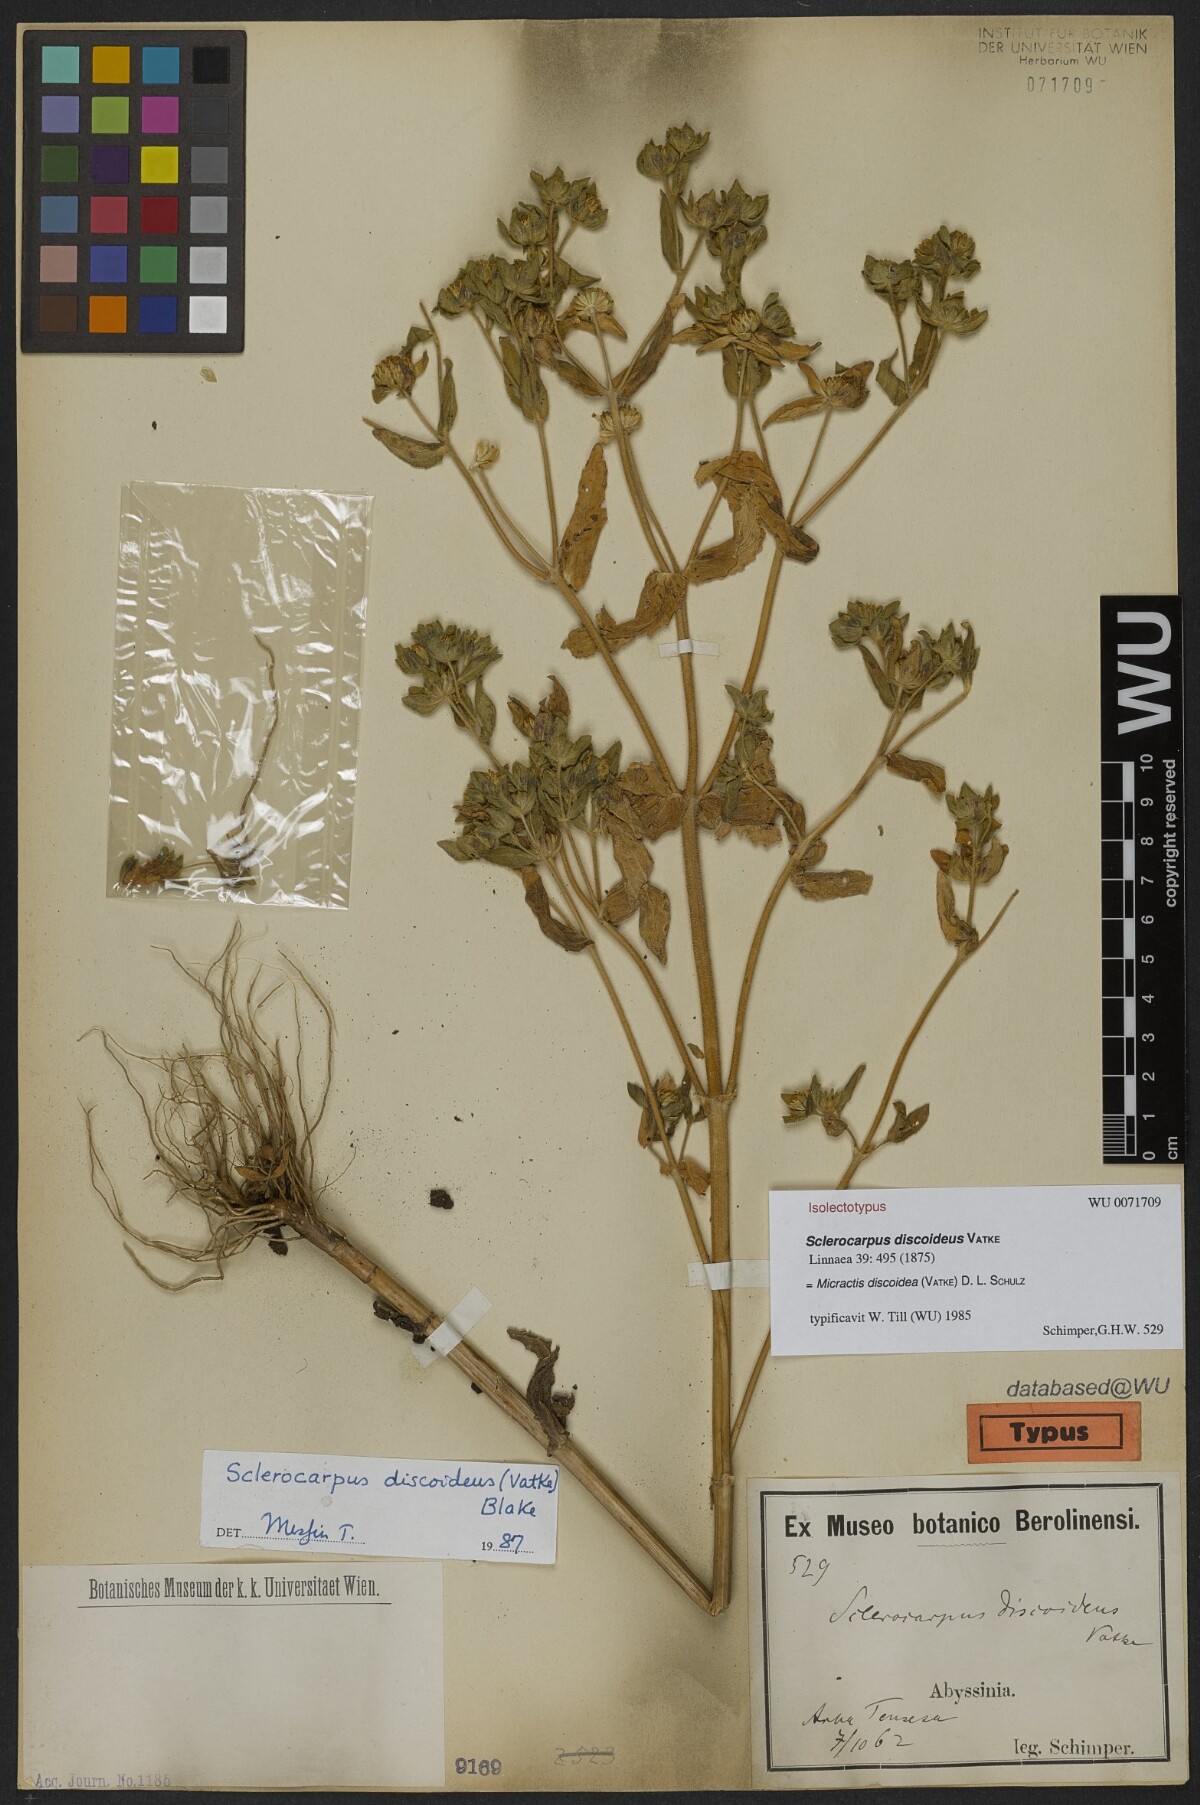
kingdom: Plantae
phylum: Tracheophyta
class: Magnoliopsida
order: Asterales
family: Asteraceae
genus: Micractis
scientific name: Micractis discoidea
